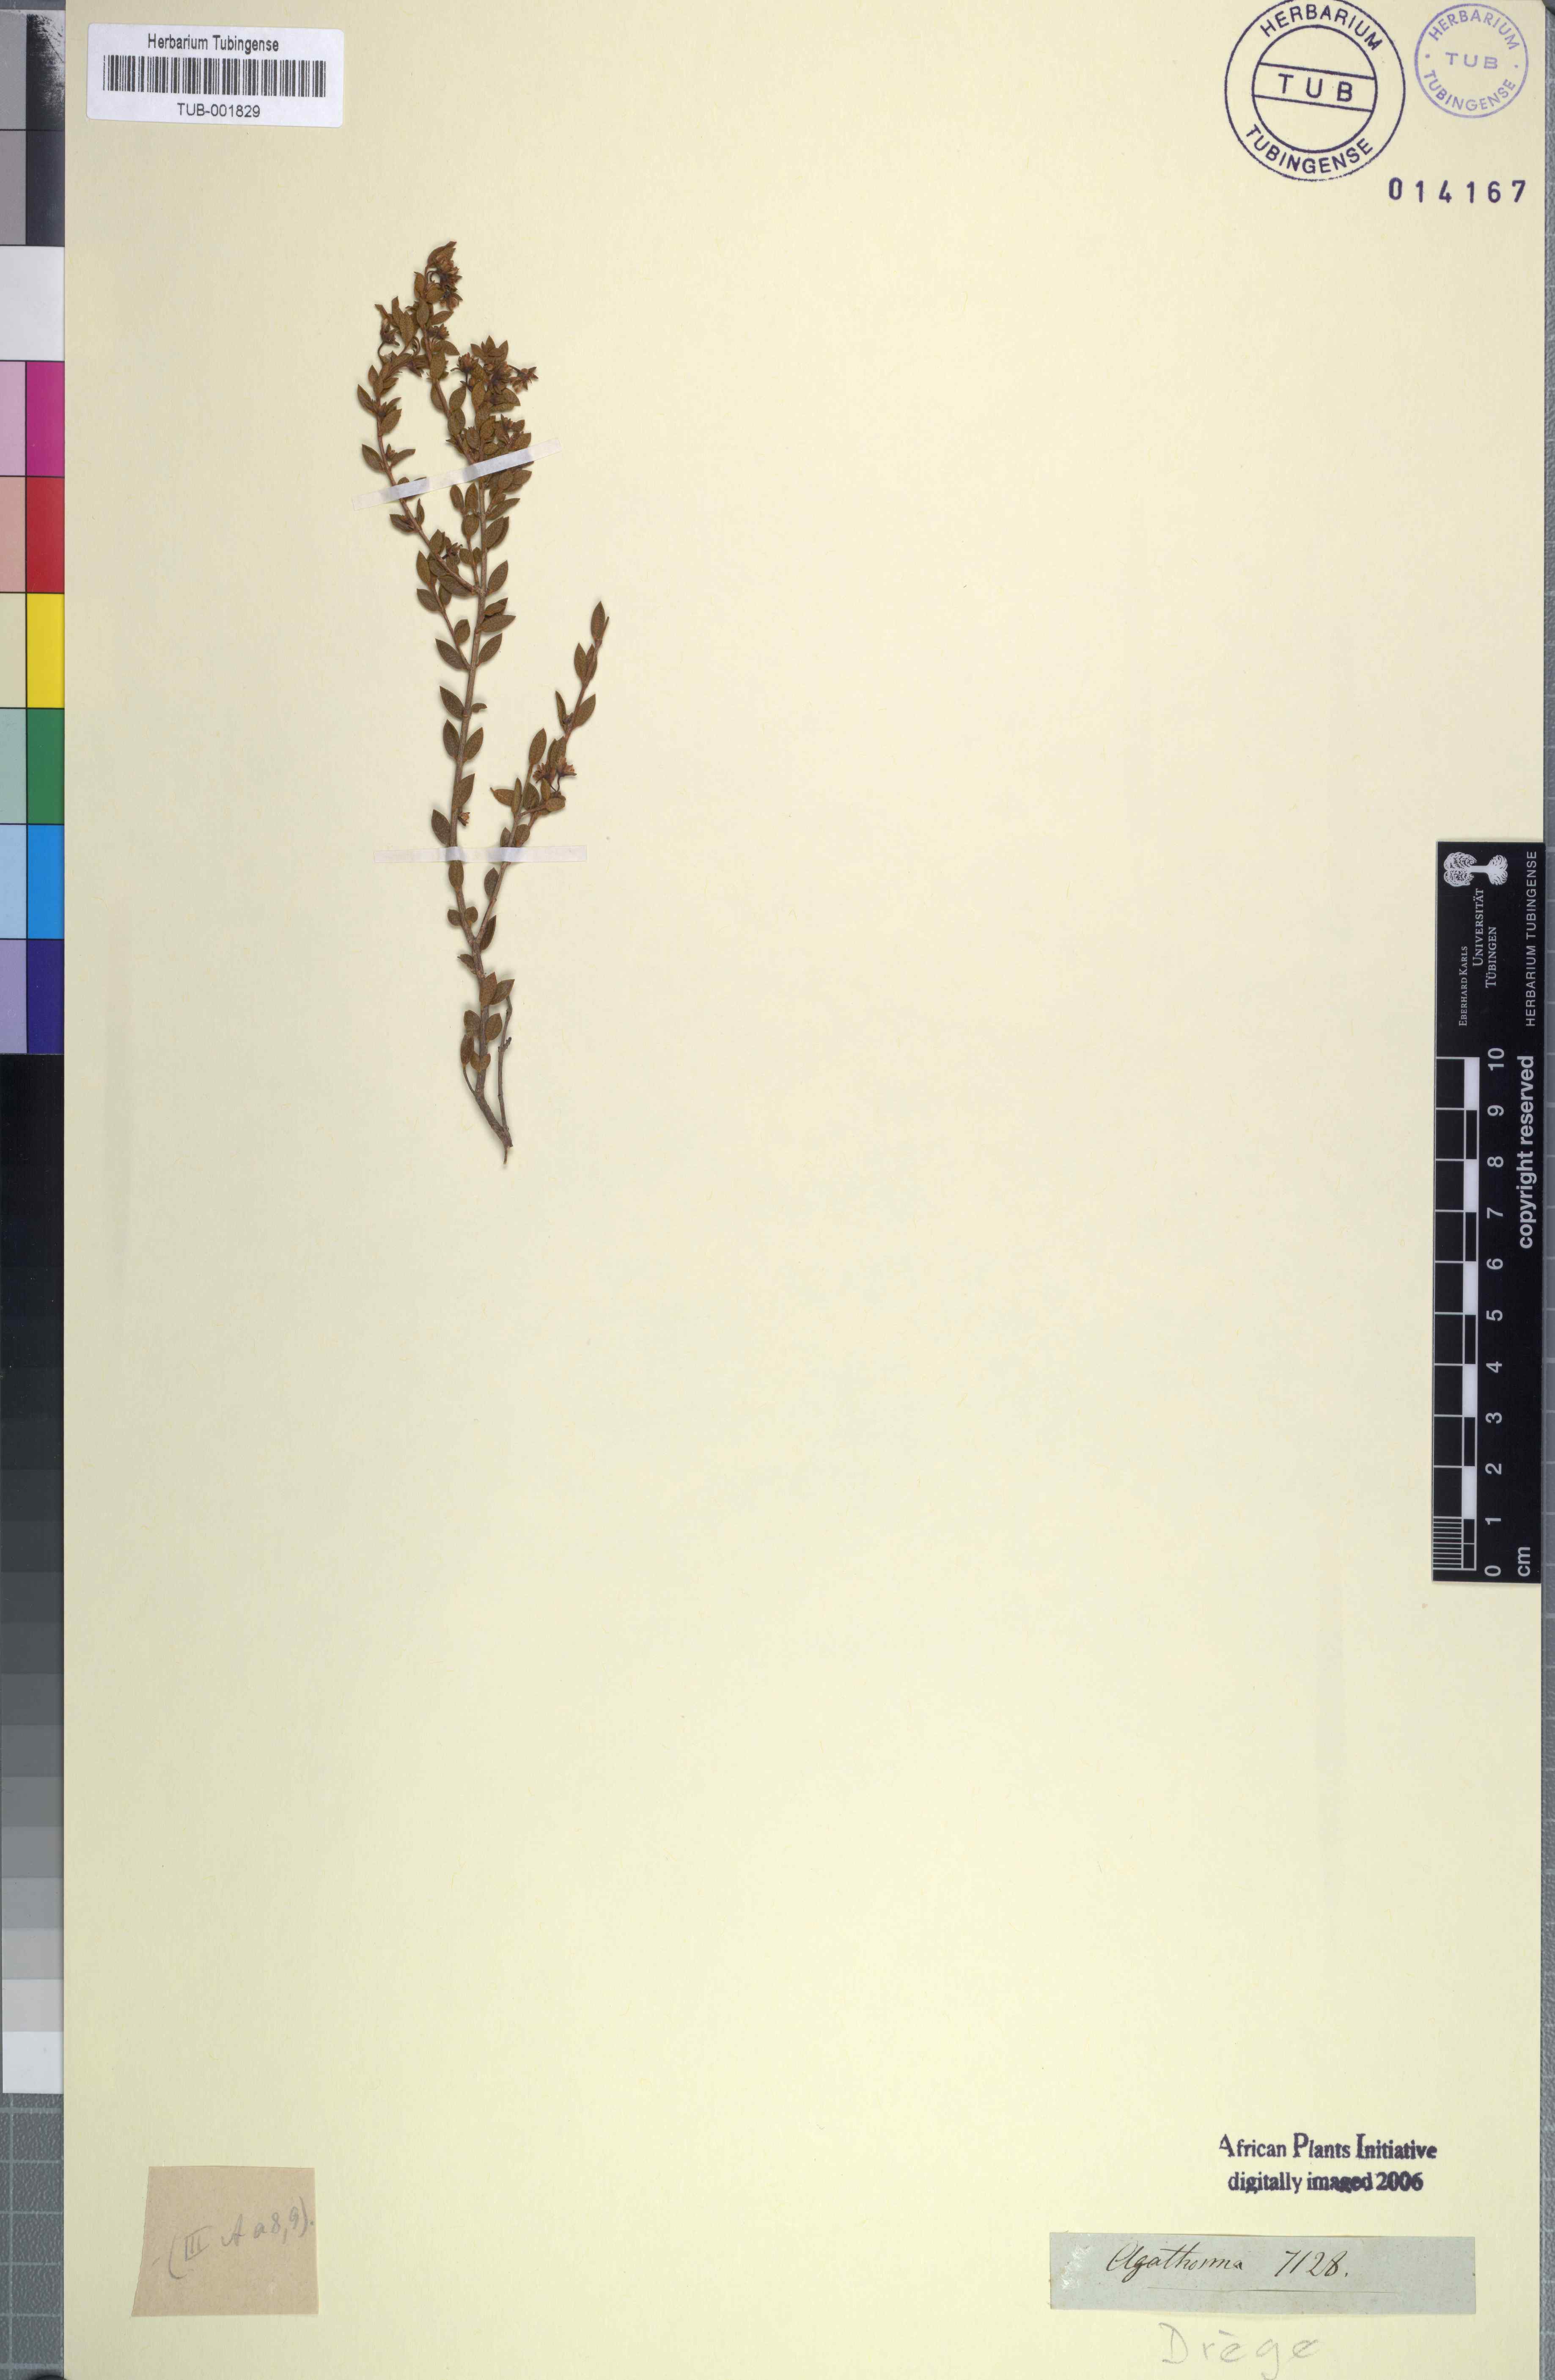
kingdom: Plantae
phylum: Tracheophyta
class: Magnoliopsida
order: Sapindales
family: Rutaceae
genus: Agathosma
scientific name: Agathosma
